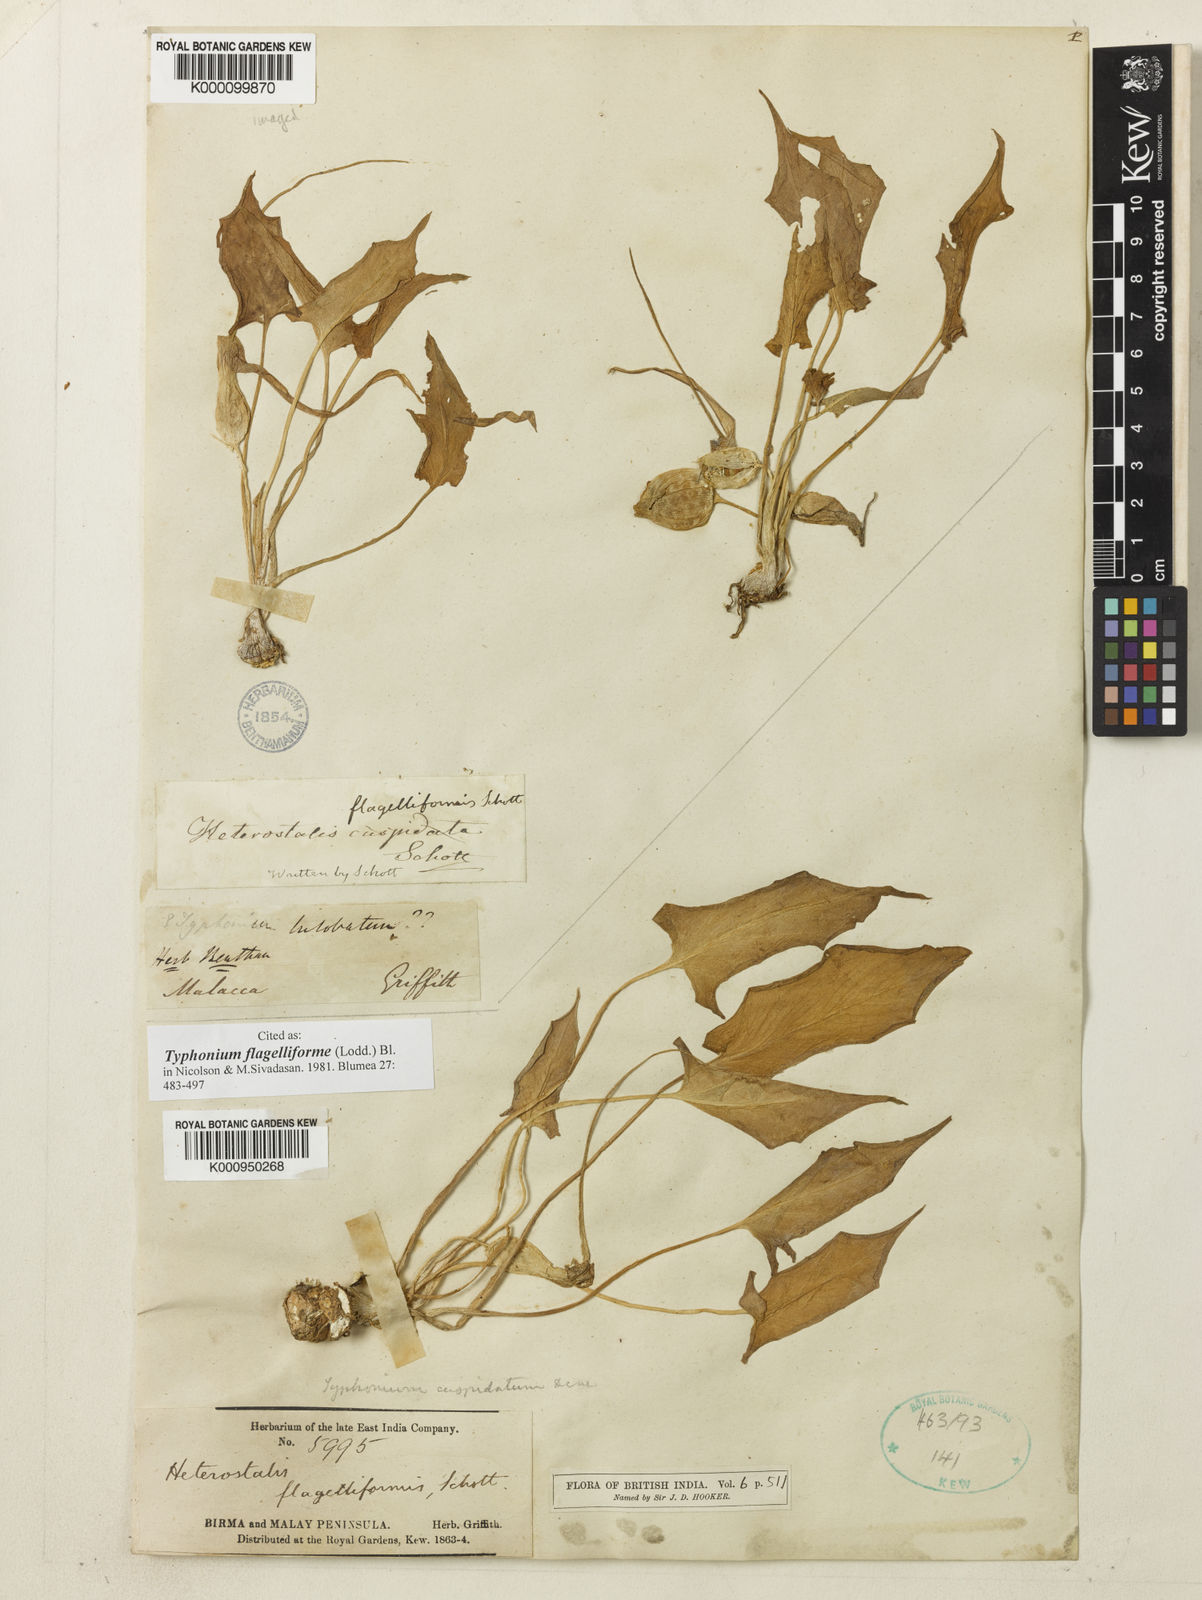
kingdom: Plantae
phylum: Tracheophyta
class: Liliopsida
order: Alismatales
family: Araceae
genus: Typhonium
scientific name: Typhonium flagelliforme
